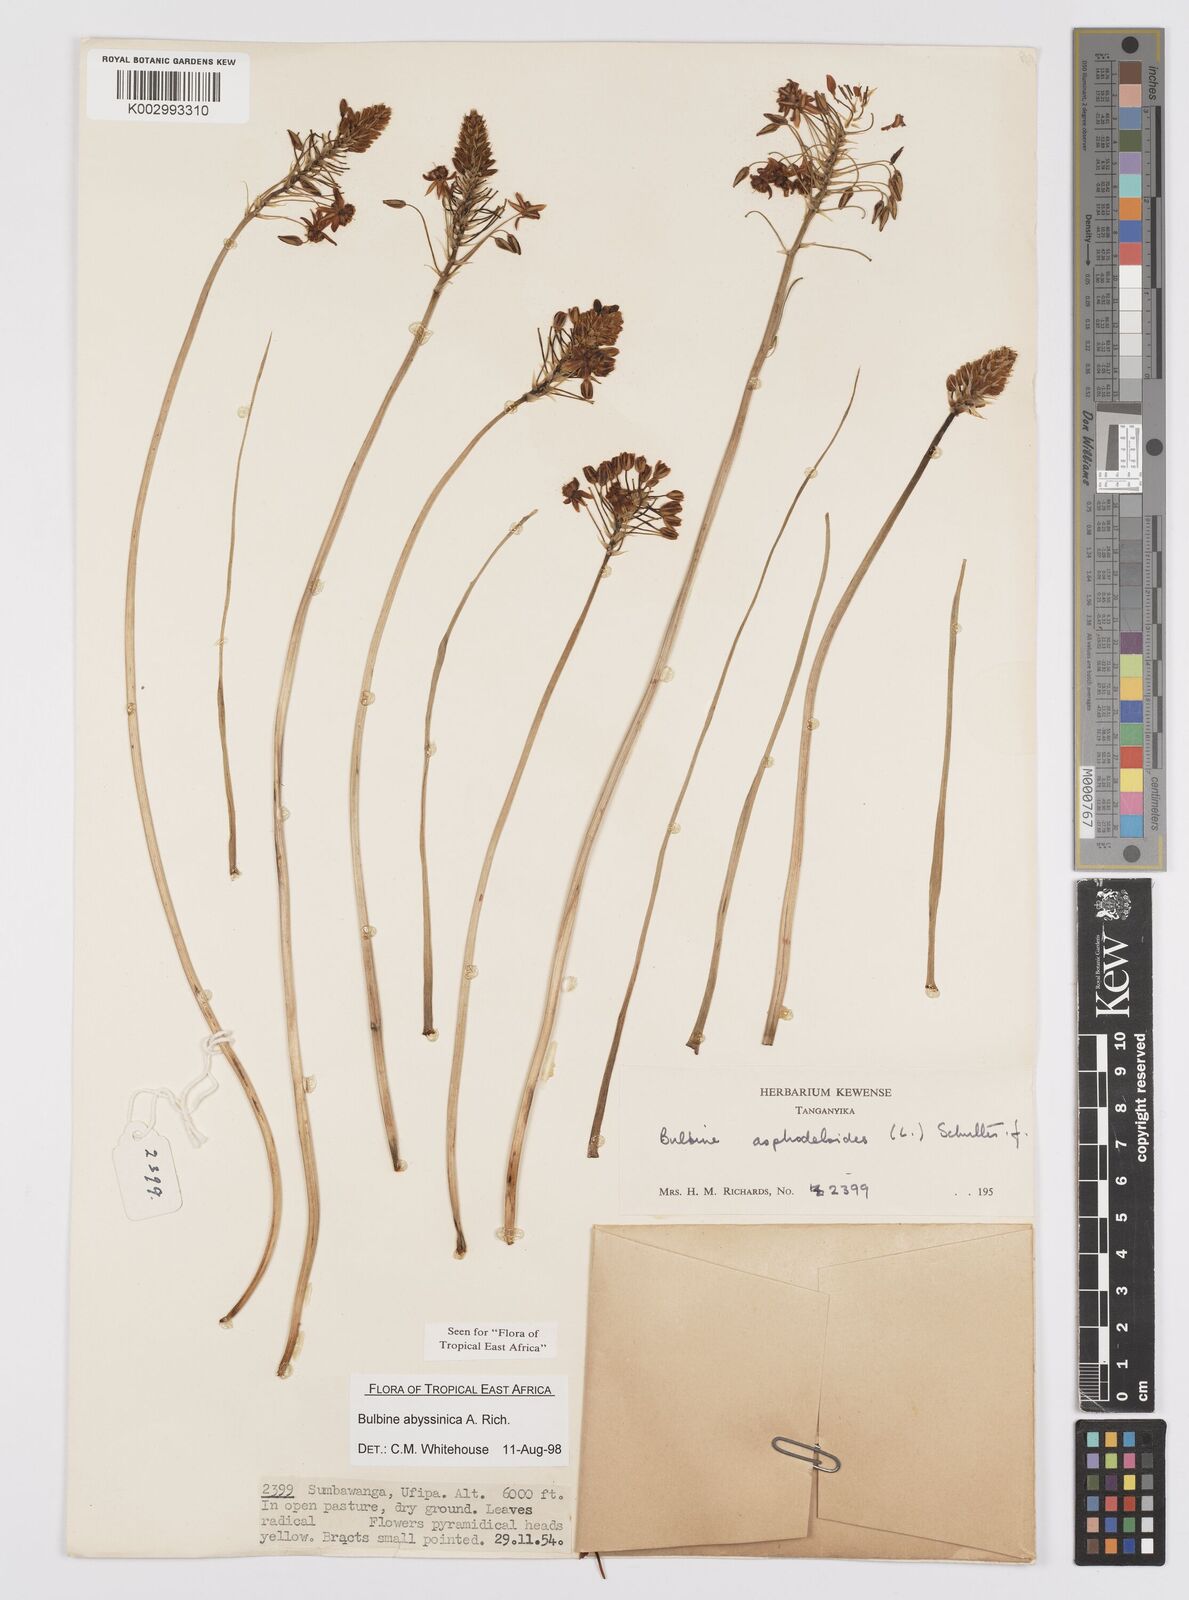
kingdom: Plantae
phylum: Tracheophyta
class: Liliopsida
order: Asparagales
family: Asphodelaceae
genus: Bulbine
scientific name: Bulbine abyssinica
